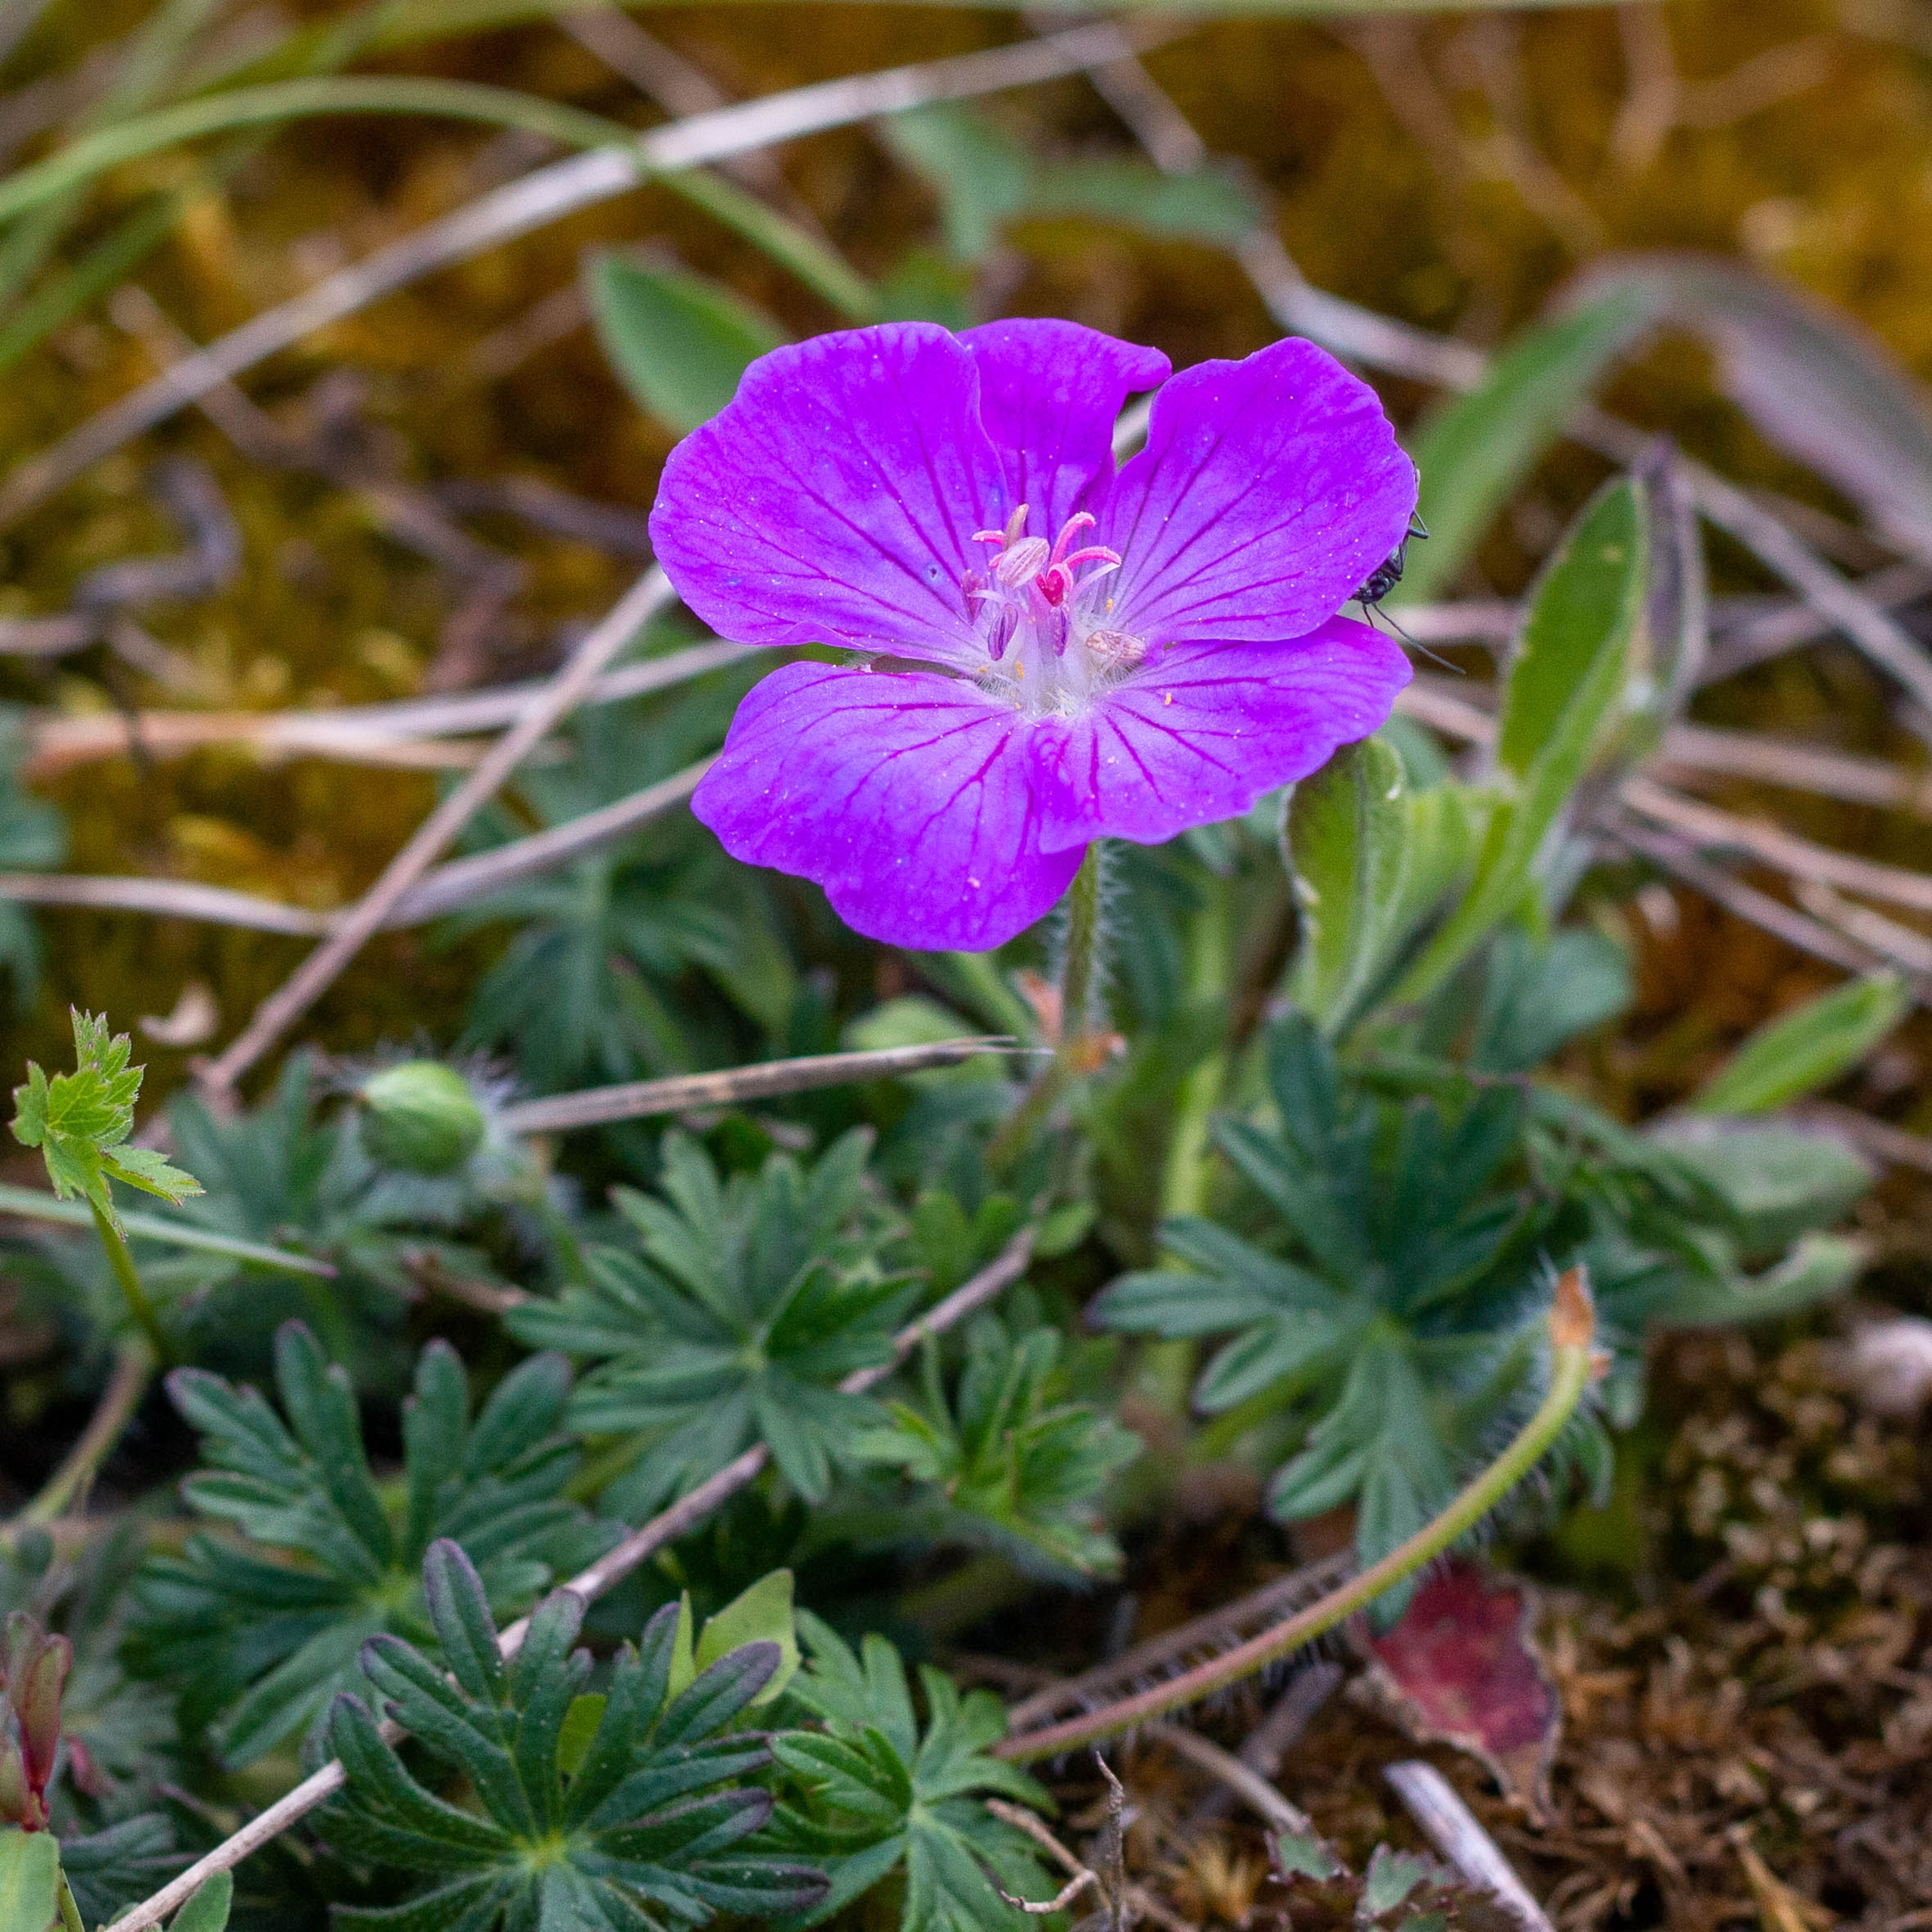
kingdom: Plantae
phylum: Tracheophyta
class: Magnoliopsida
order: Geraniales
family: Geraniaceae
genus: Geranium
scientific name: Geranium sanguineum
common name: Blodrød storkenæb
